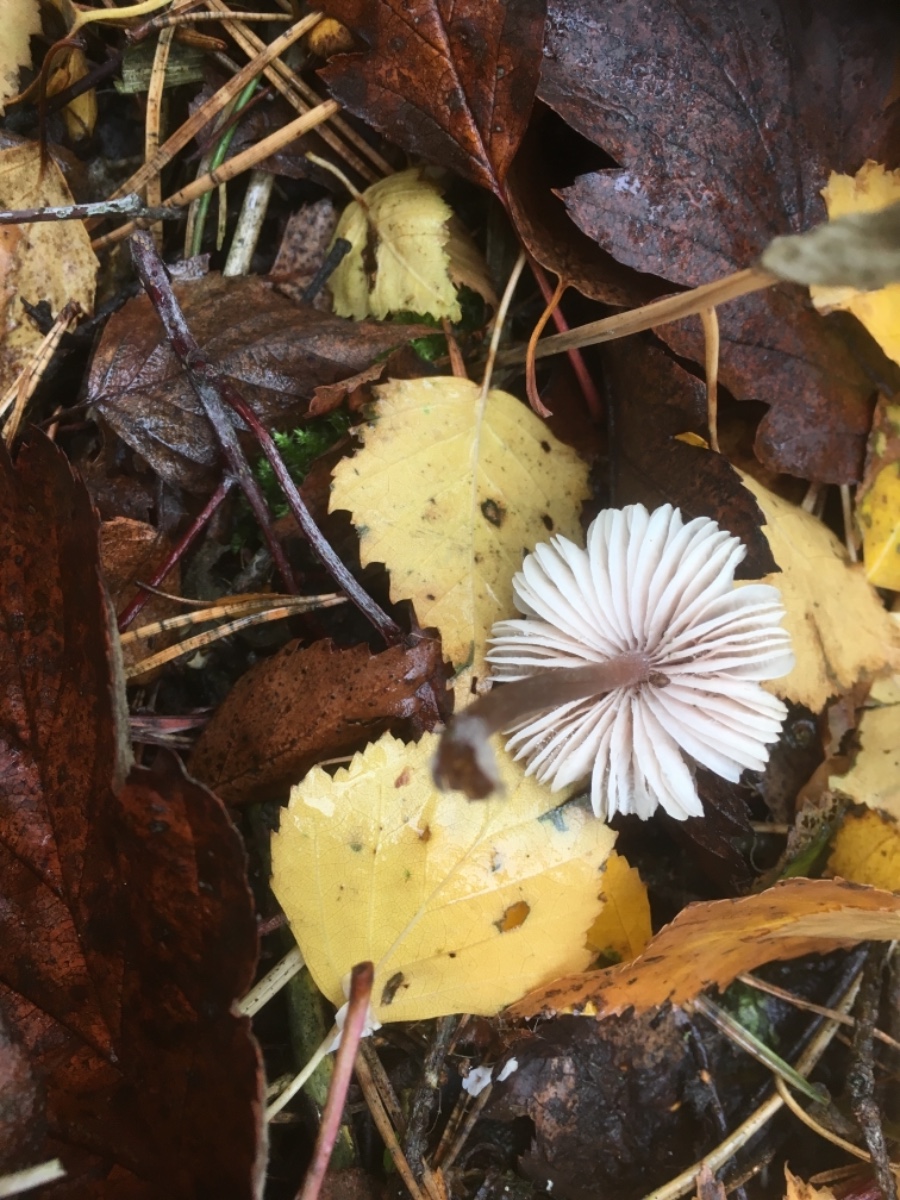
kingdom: Fungi
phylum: Basidiomycota
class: Agaricomycetes
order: Agaricales
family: Mycenaceae
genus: Mycena
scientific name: Mycena
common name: huesvamp
